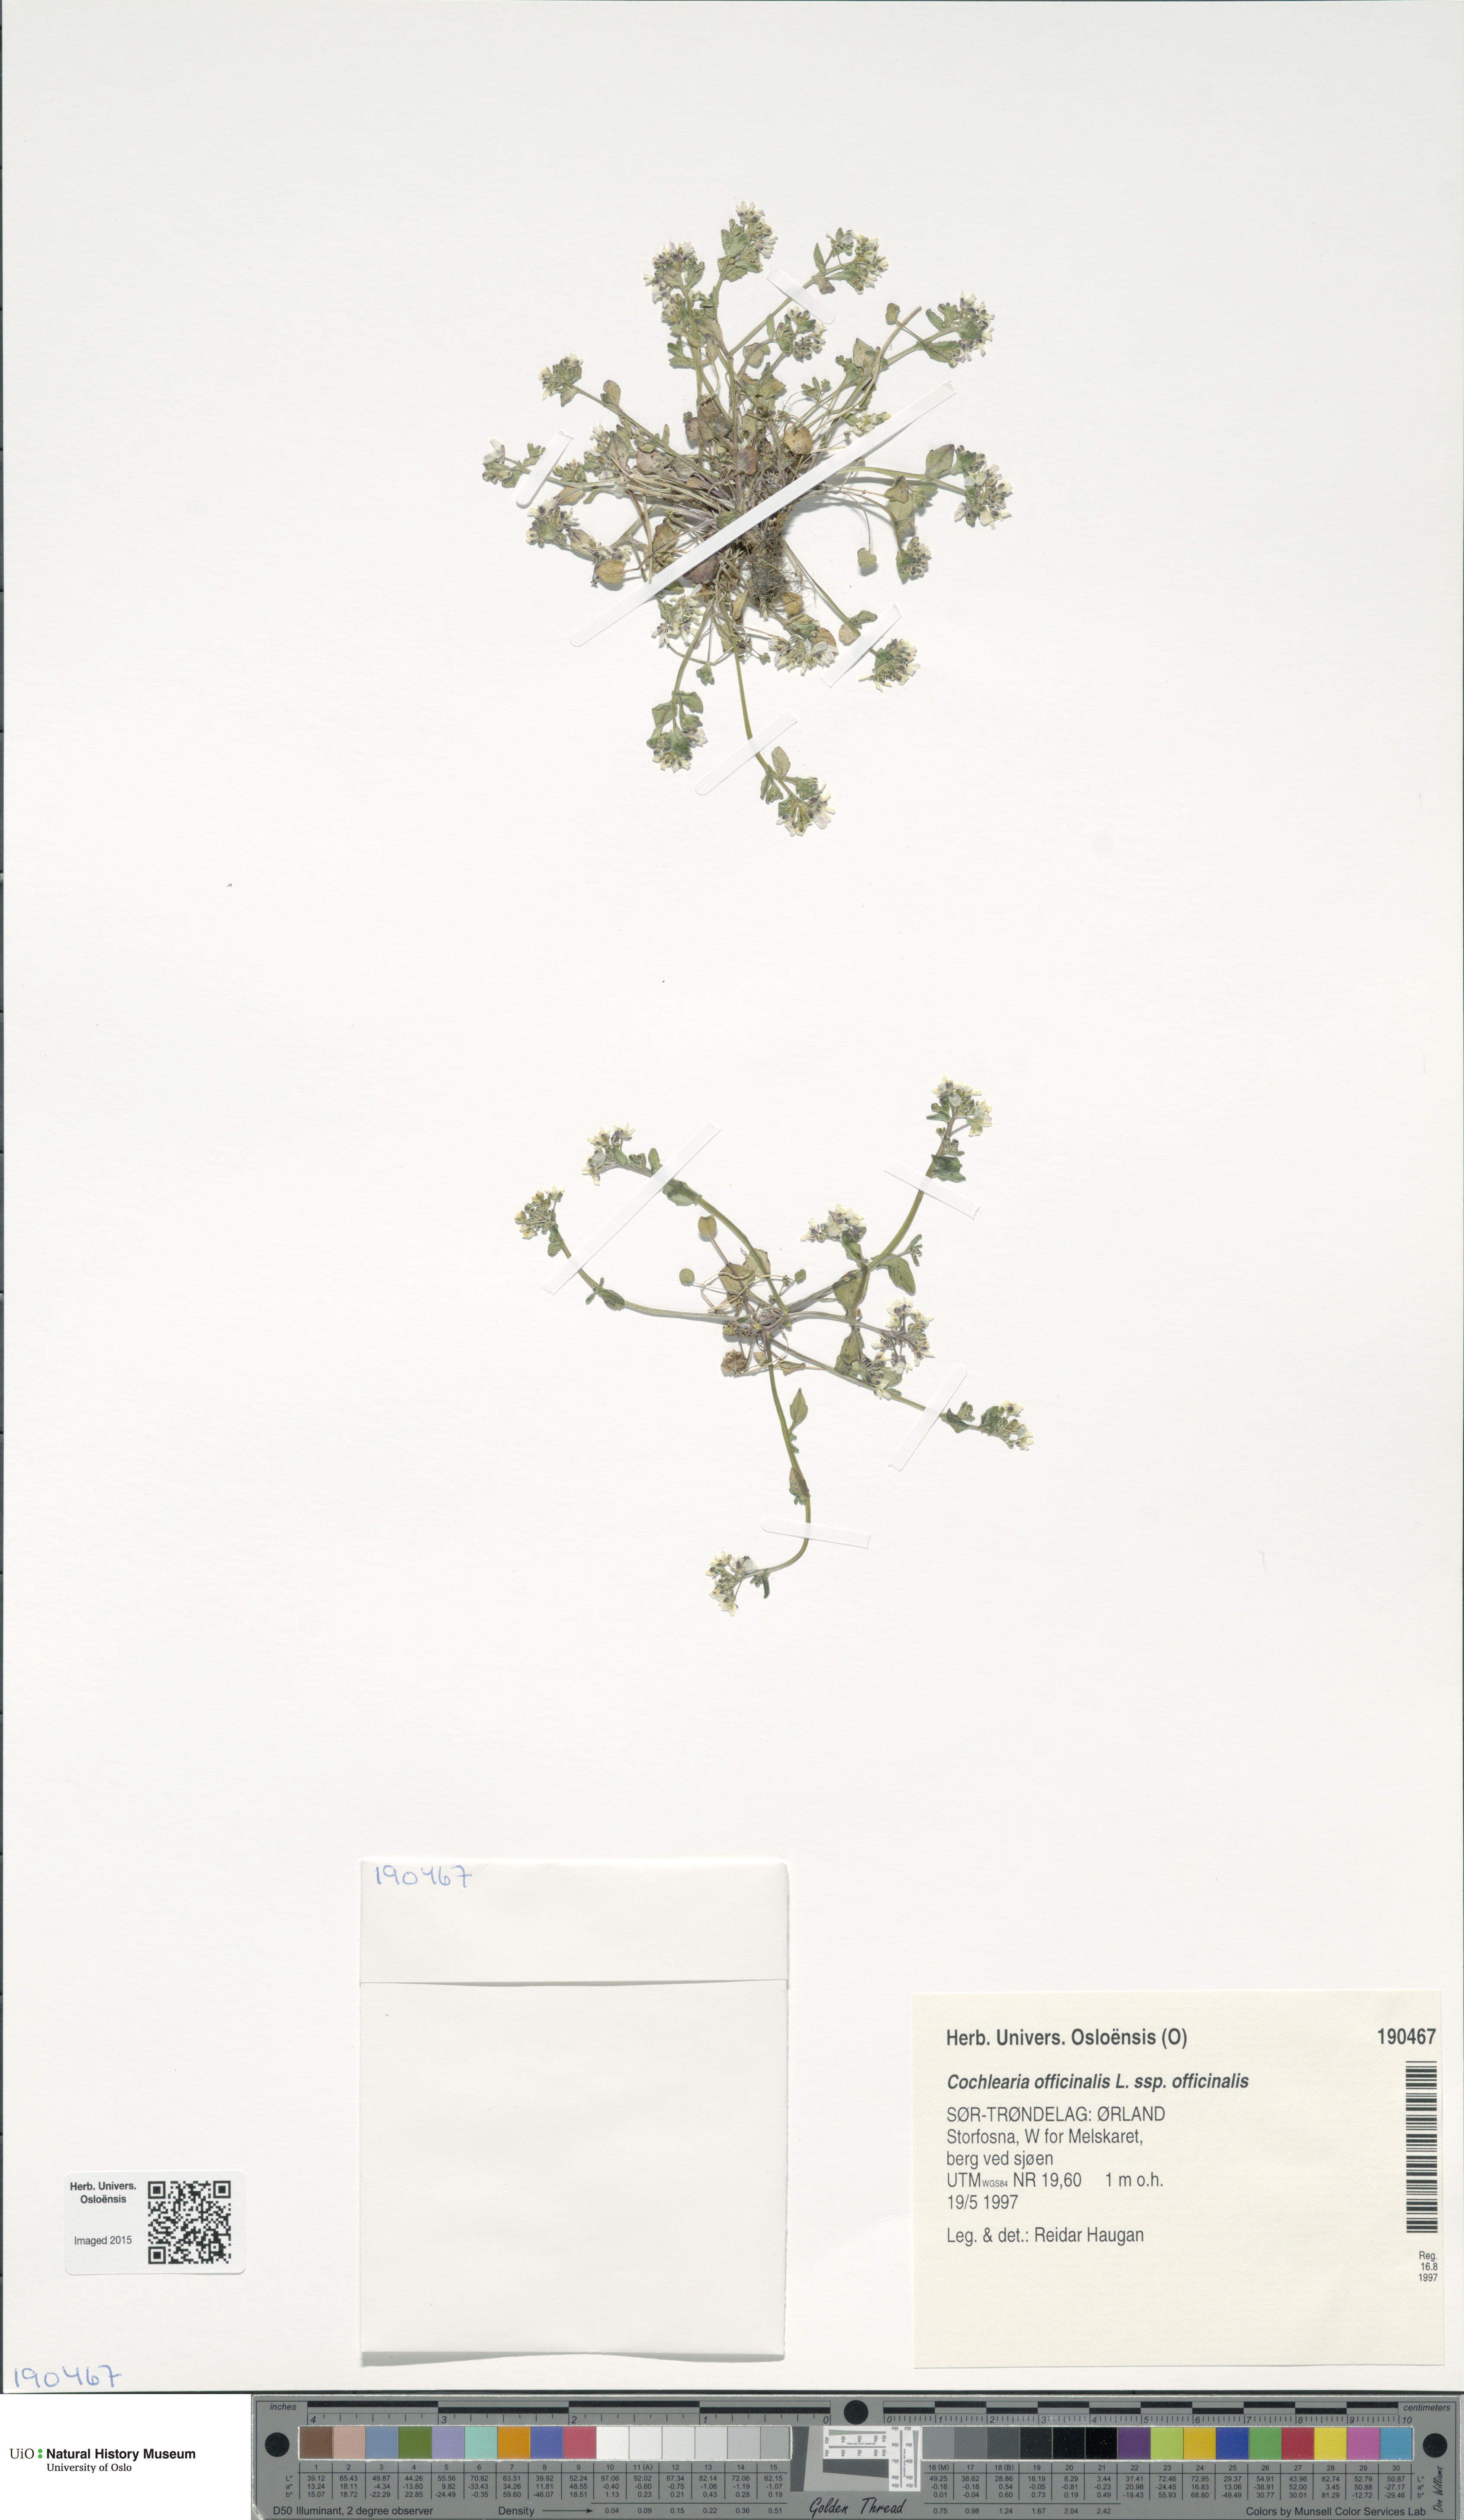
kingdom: Plantae
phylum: Tracheophyta
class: Magnoliopsida
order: Brassicales
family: Brassicaceae
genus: Cochlearia
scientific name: Cochlearia officinalis
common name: Scurvy-grass
